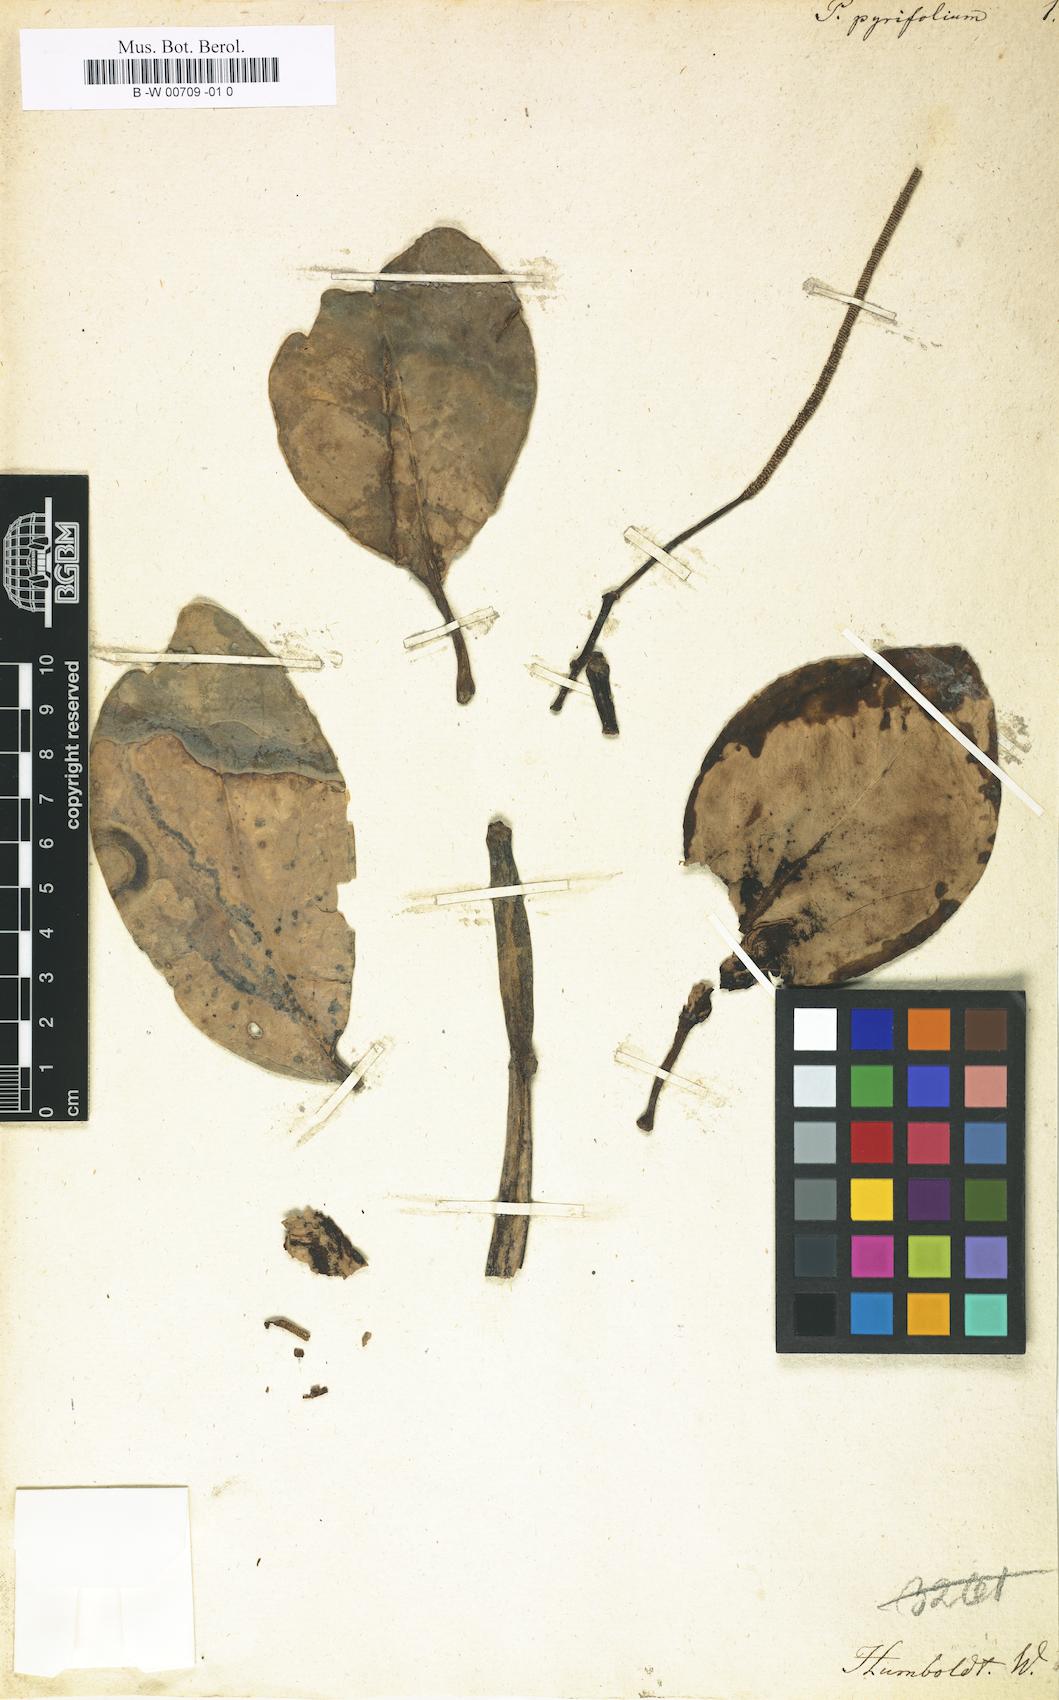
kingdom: Plantae
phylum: Tracheophyta
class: Magnoliopsida
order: Piperales
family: Piperaceae
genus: Piper
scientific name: Piper borbonense
